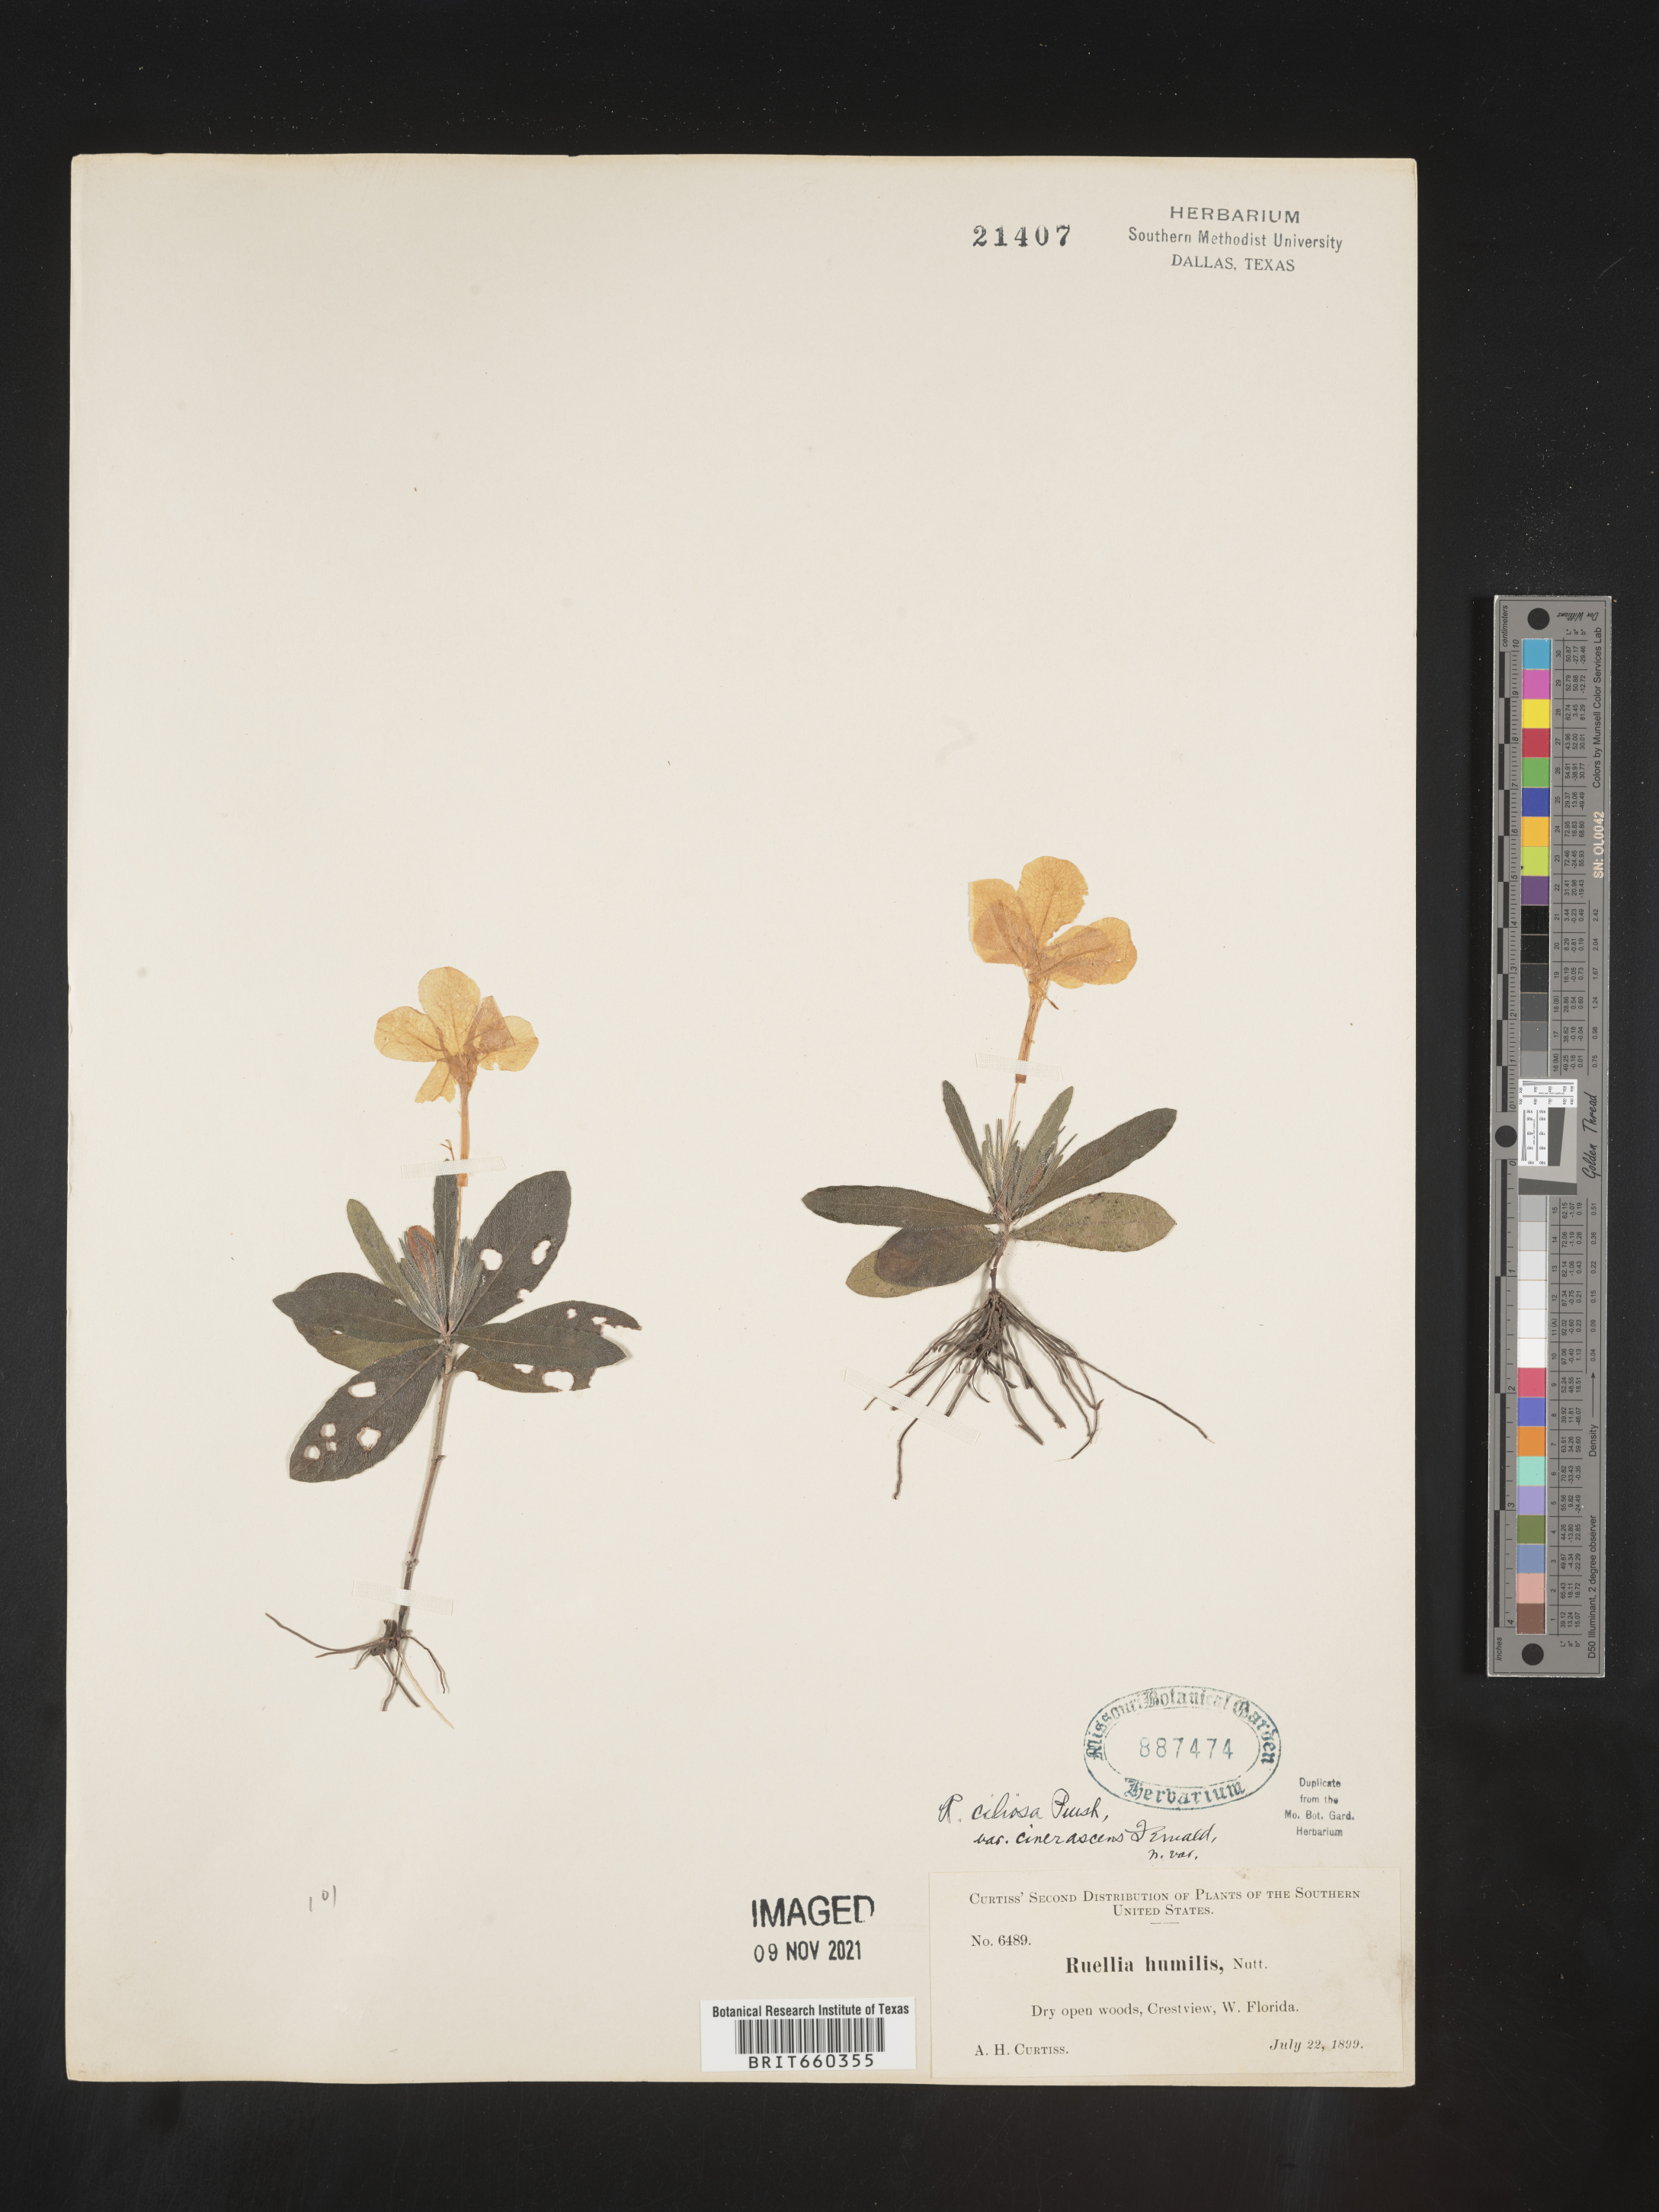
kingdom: Plantae
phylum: Tracheophyta
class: Magnoliopsida
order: Lamiales
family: Acanthaceae
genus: Ruellia
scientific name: Ruellia caroliniensis
